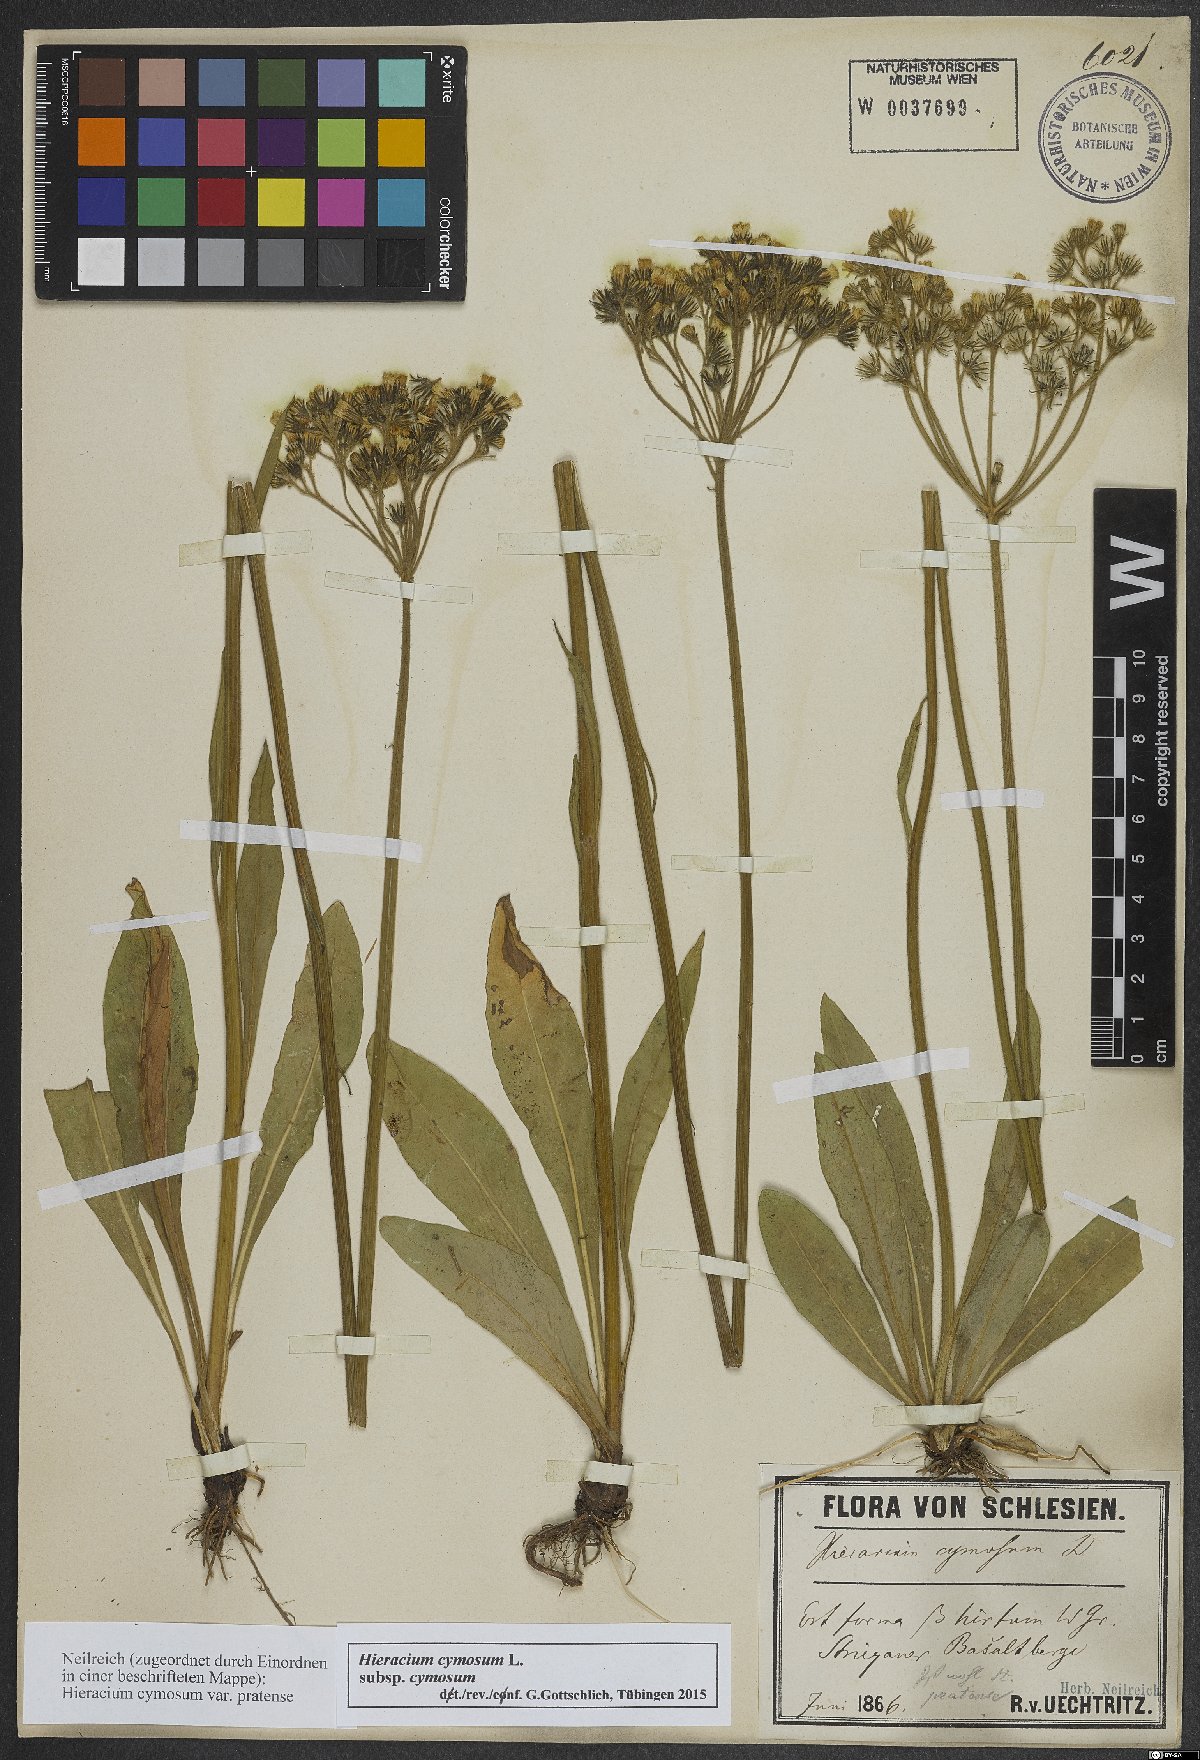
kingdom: Plantae
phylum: Tracheophyta
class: Magnoliopsida
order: Asterales
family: Asteraceae
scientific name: Asteraceae
